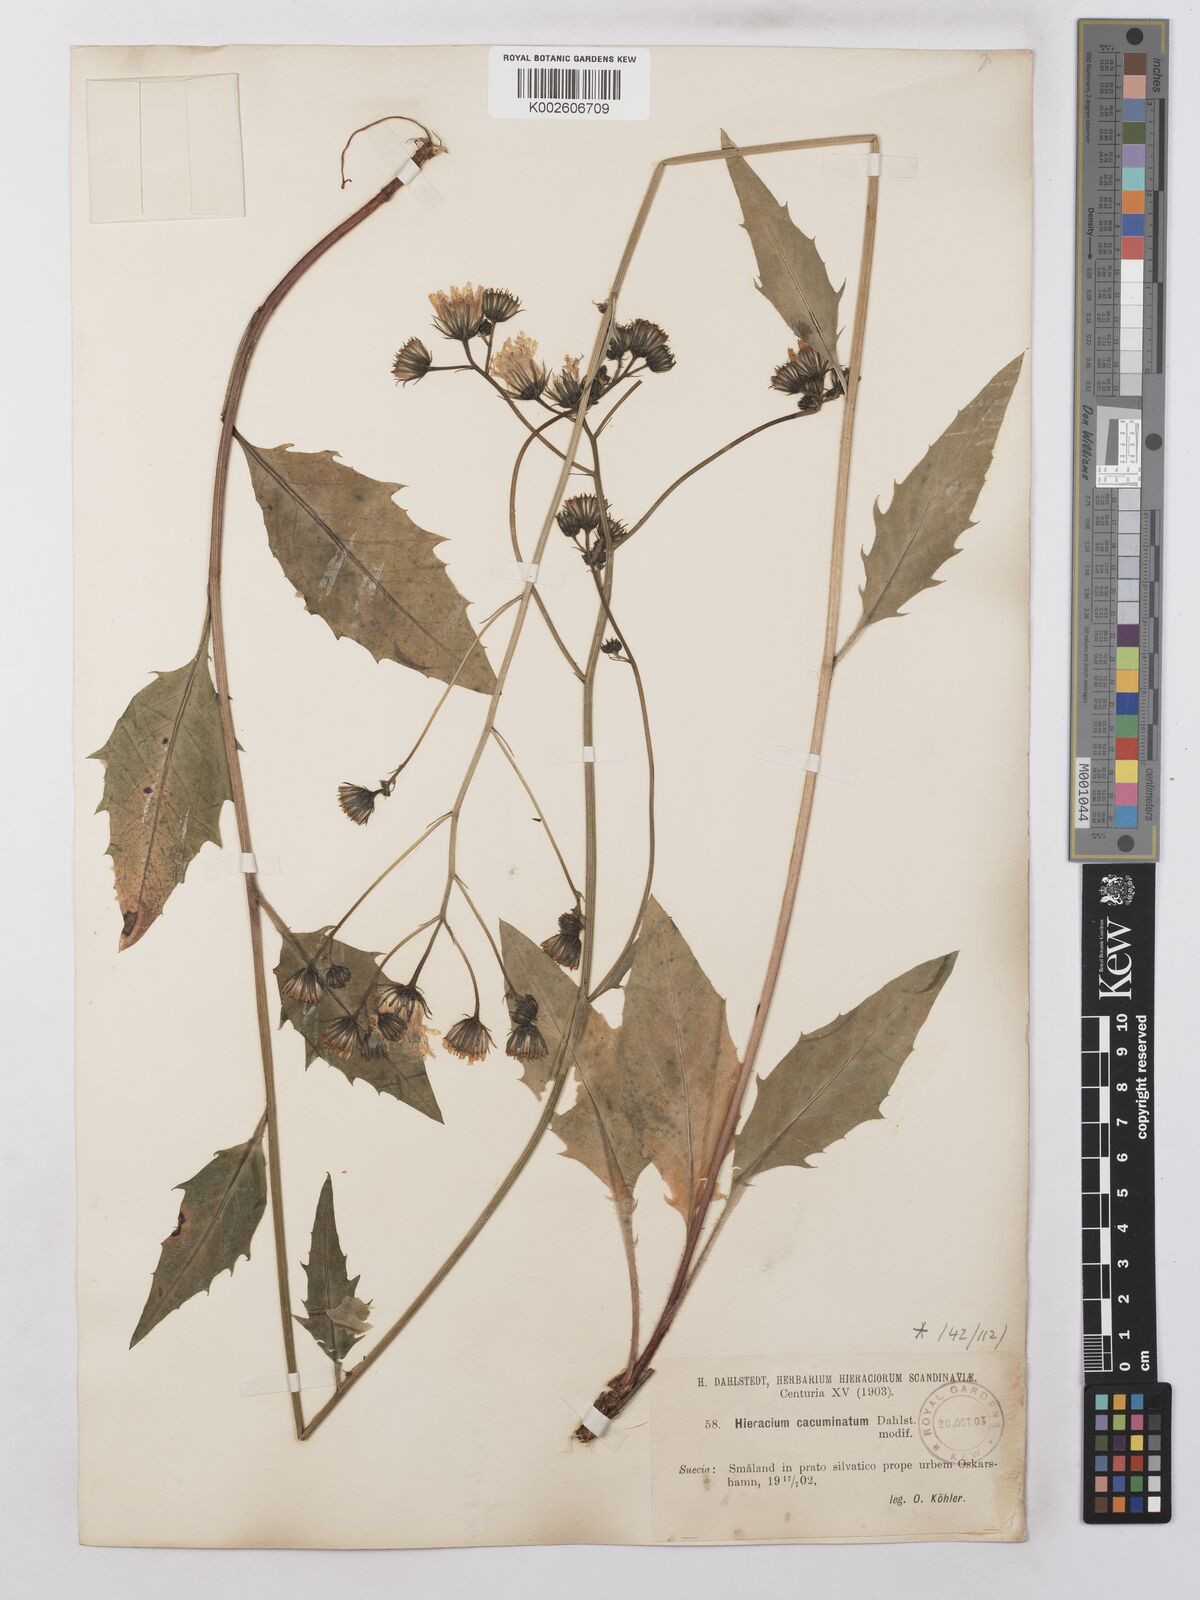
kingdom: Plantae
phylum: Tracheophyta
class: Magnoliopsida
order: Asterales
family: Asteraceae
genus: Hieracium
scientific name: Hieracium lachenalii
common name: Common hawkweed
